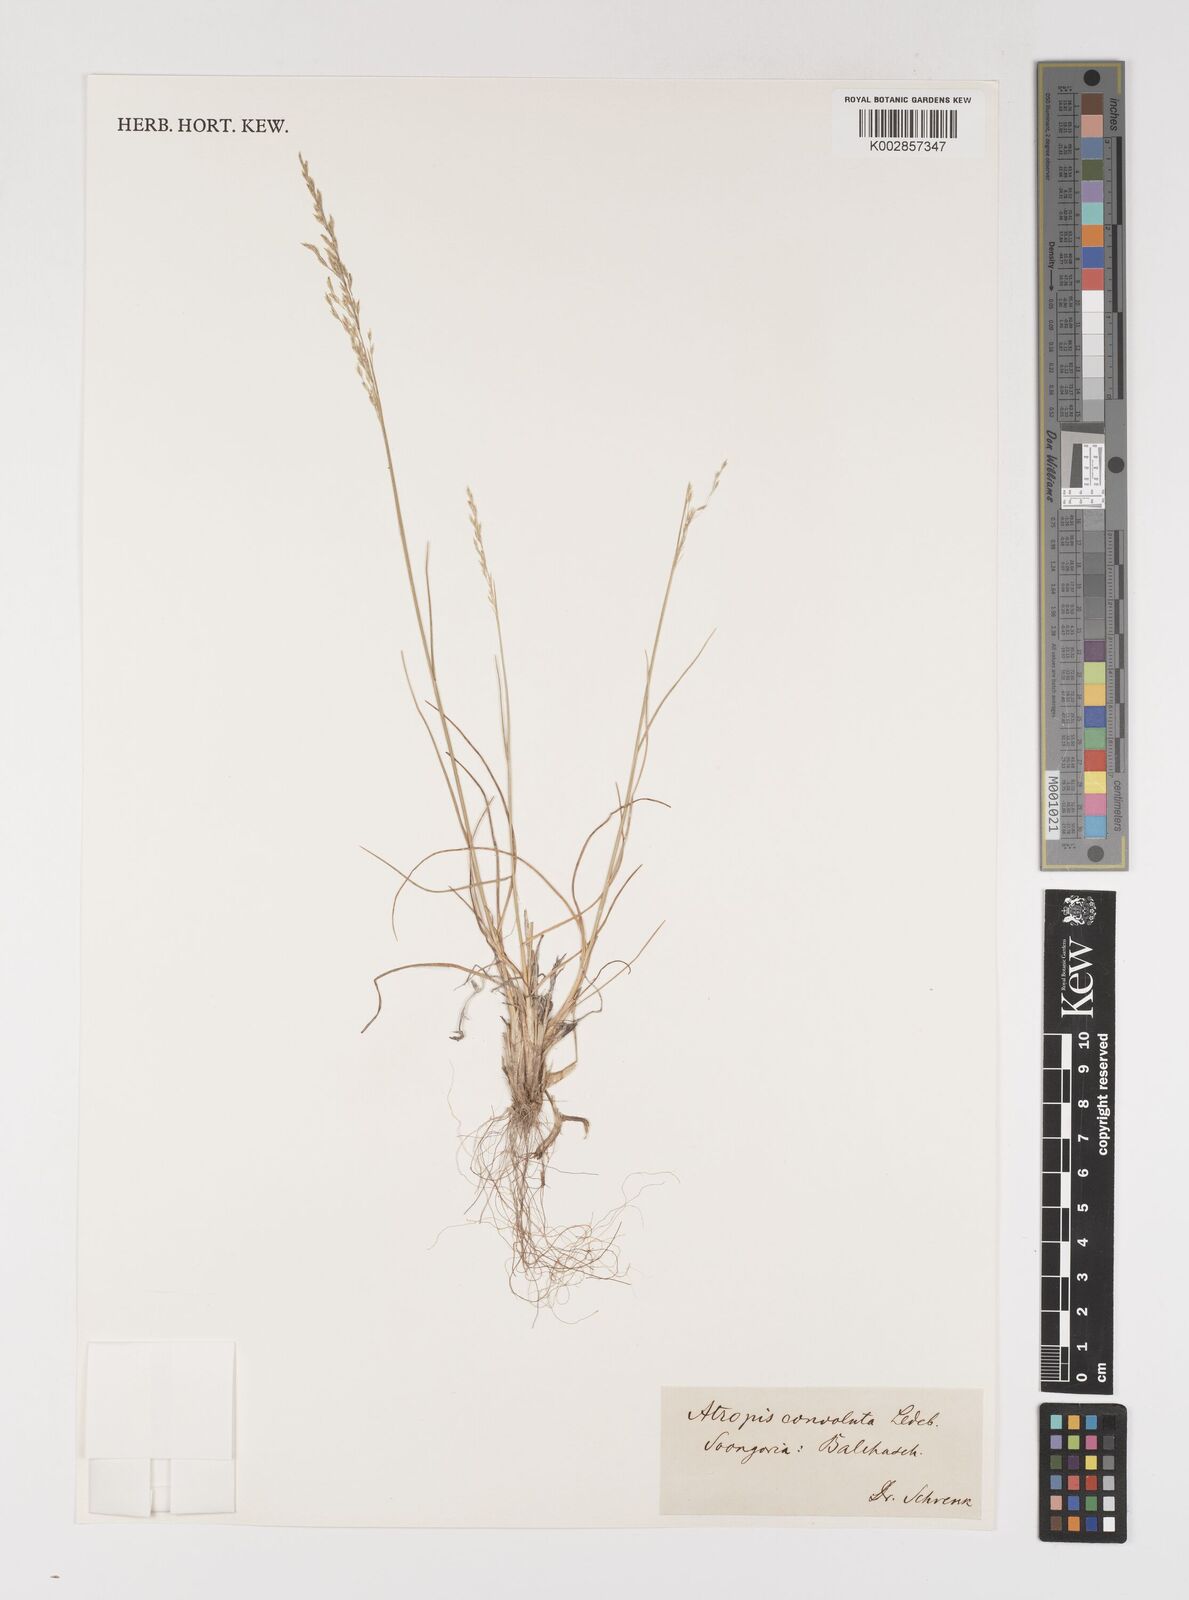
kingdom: Plantae
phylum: Tracheophyta
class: Liliopsida
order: Poales
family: Poaceae
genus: Puccinellia
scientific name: Puccinellia gigantea
